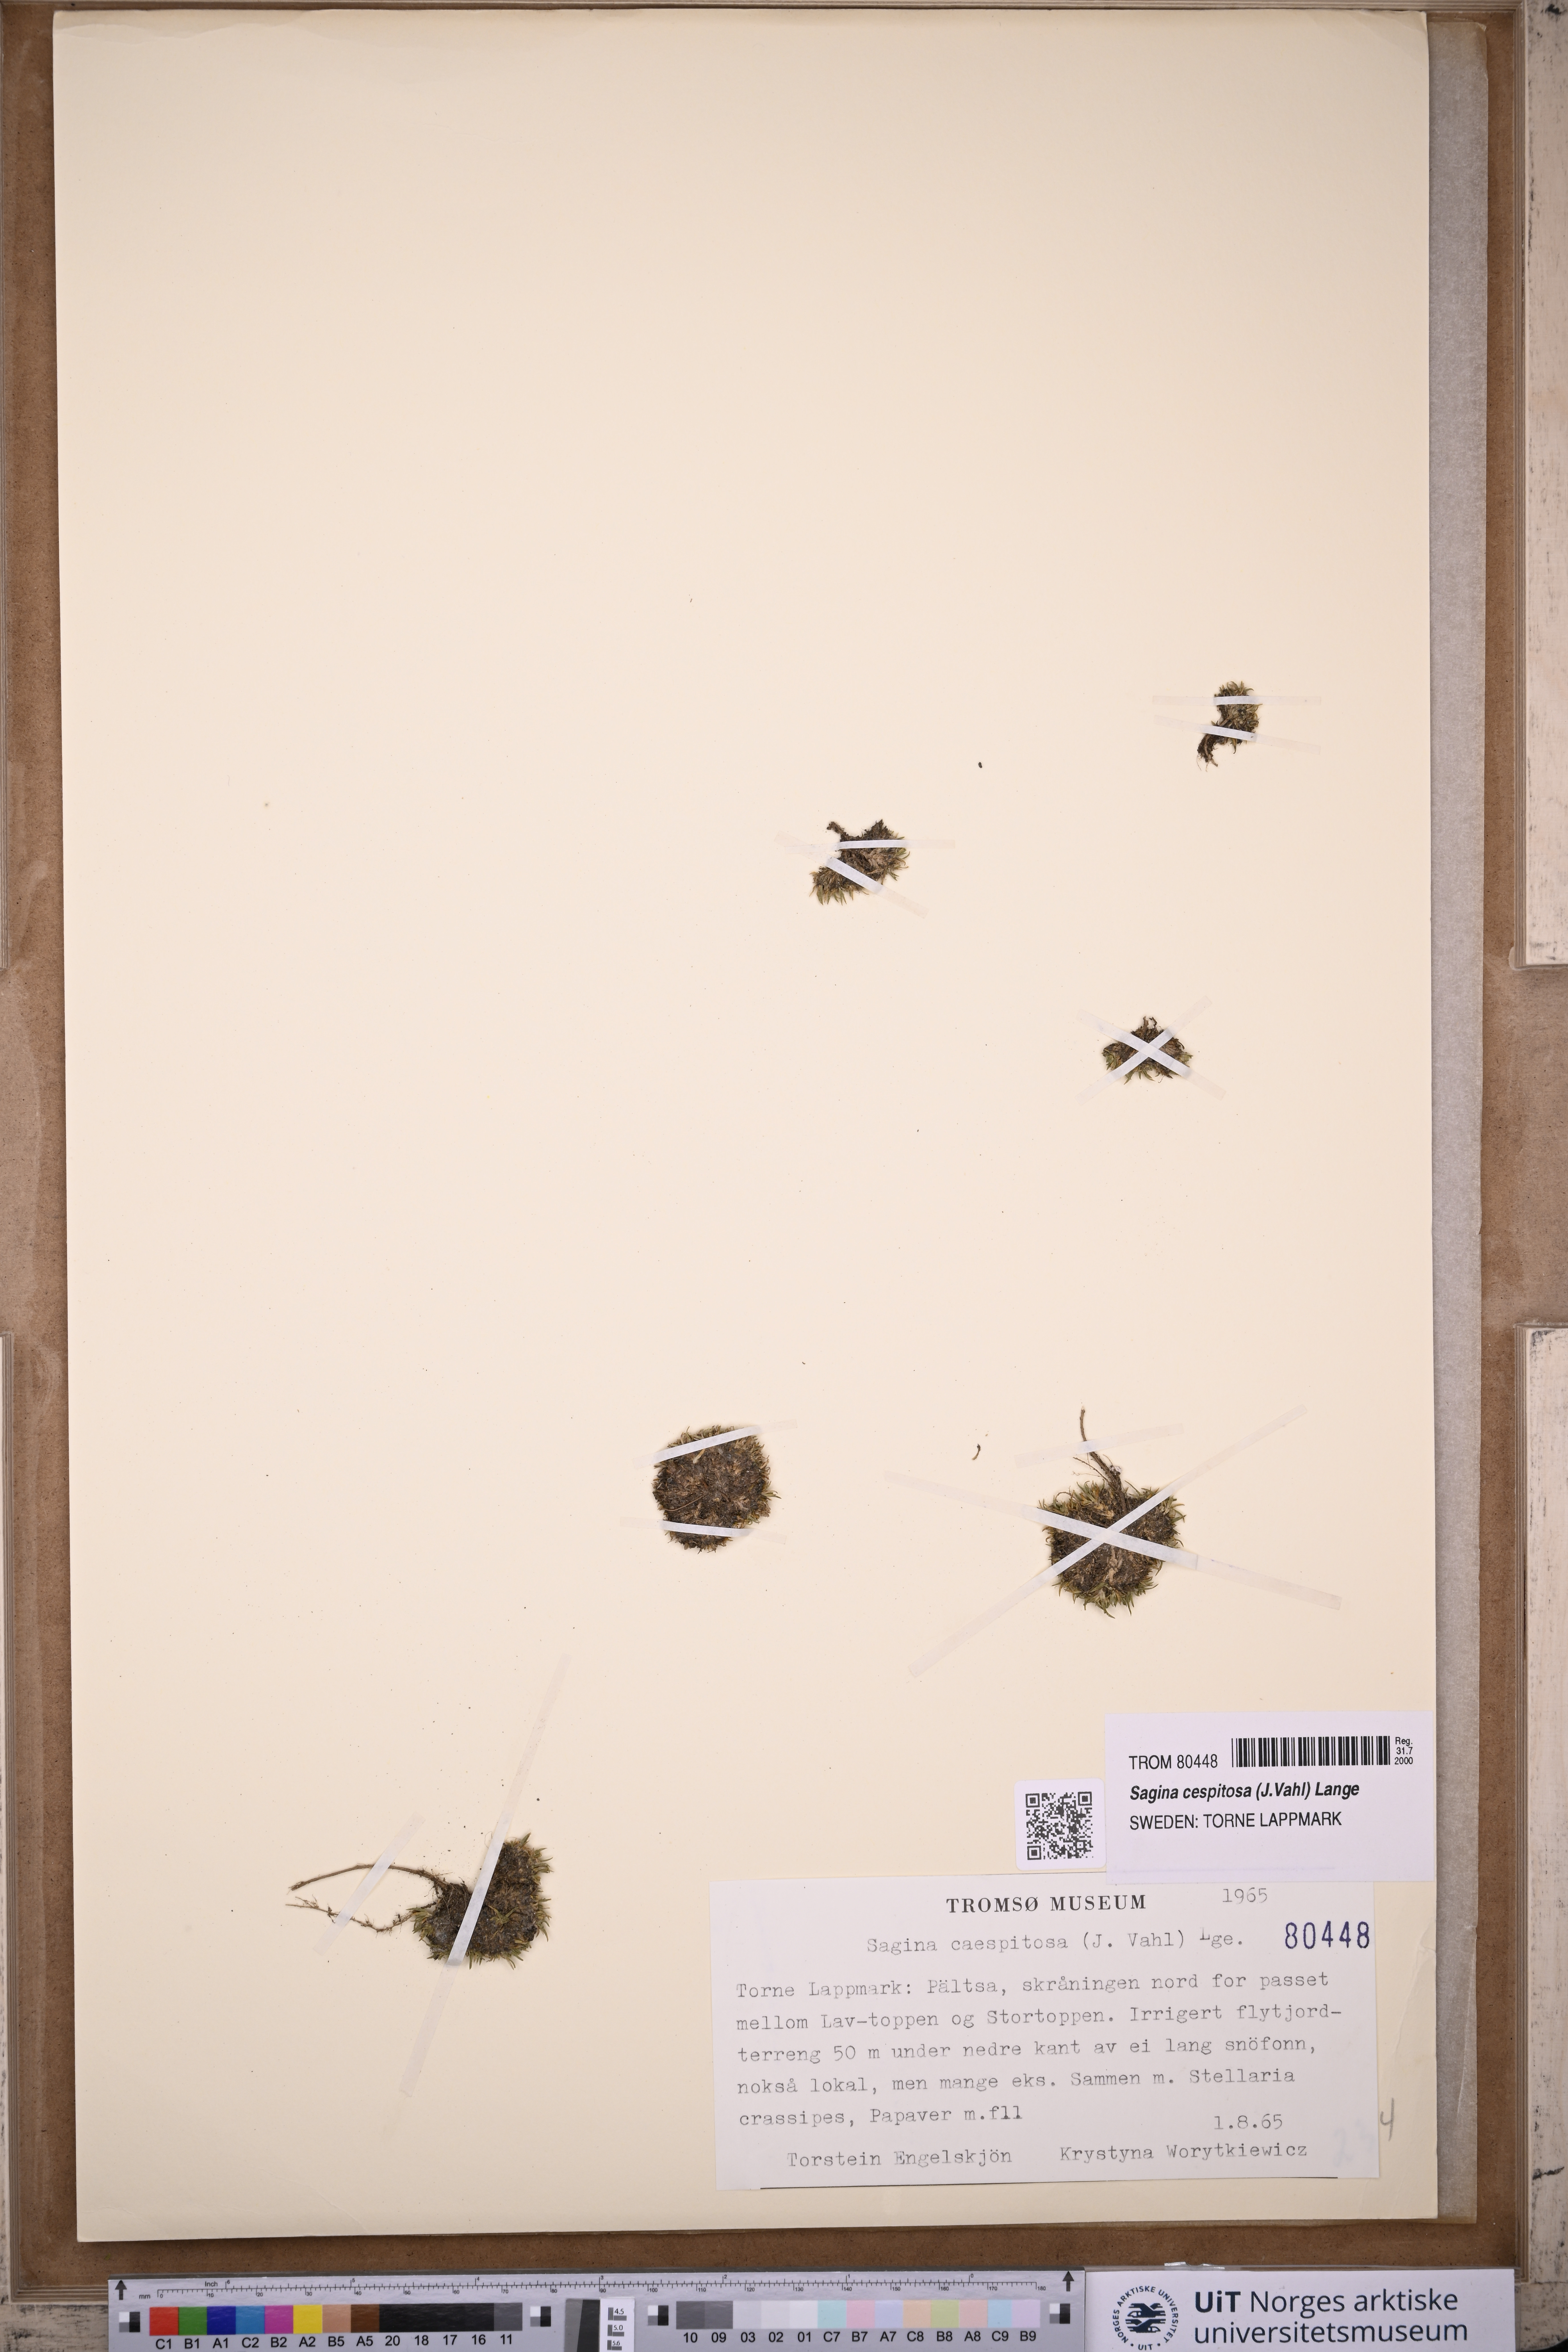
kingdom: Plantae
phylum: Tracheophyta
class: Magnoliopsida
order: Caryophyllales
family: Caryophyllaceae
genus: Sagina
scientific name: Sagina caespitosa
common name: Tufted pearlwort
